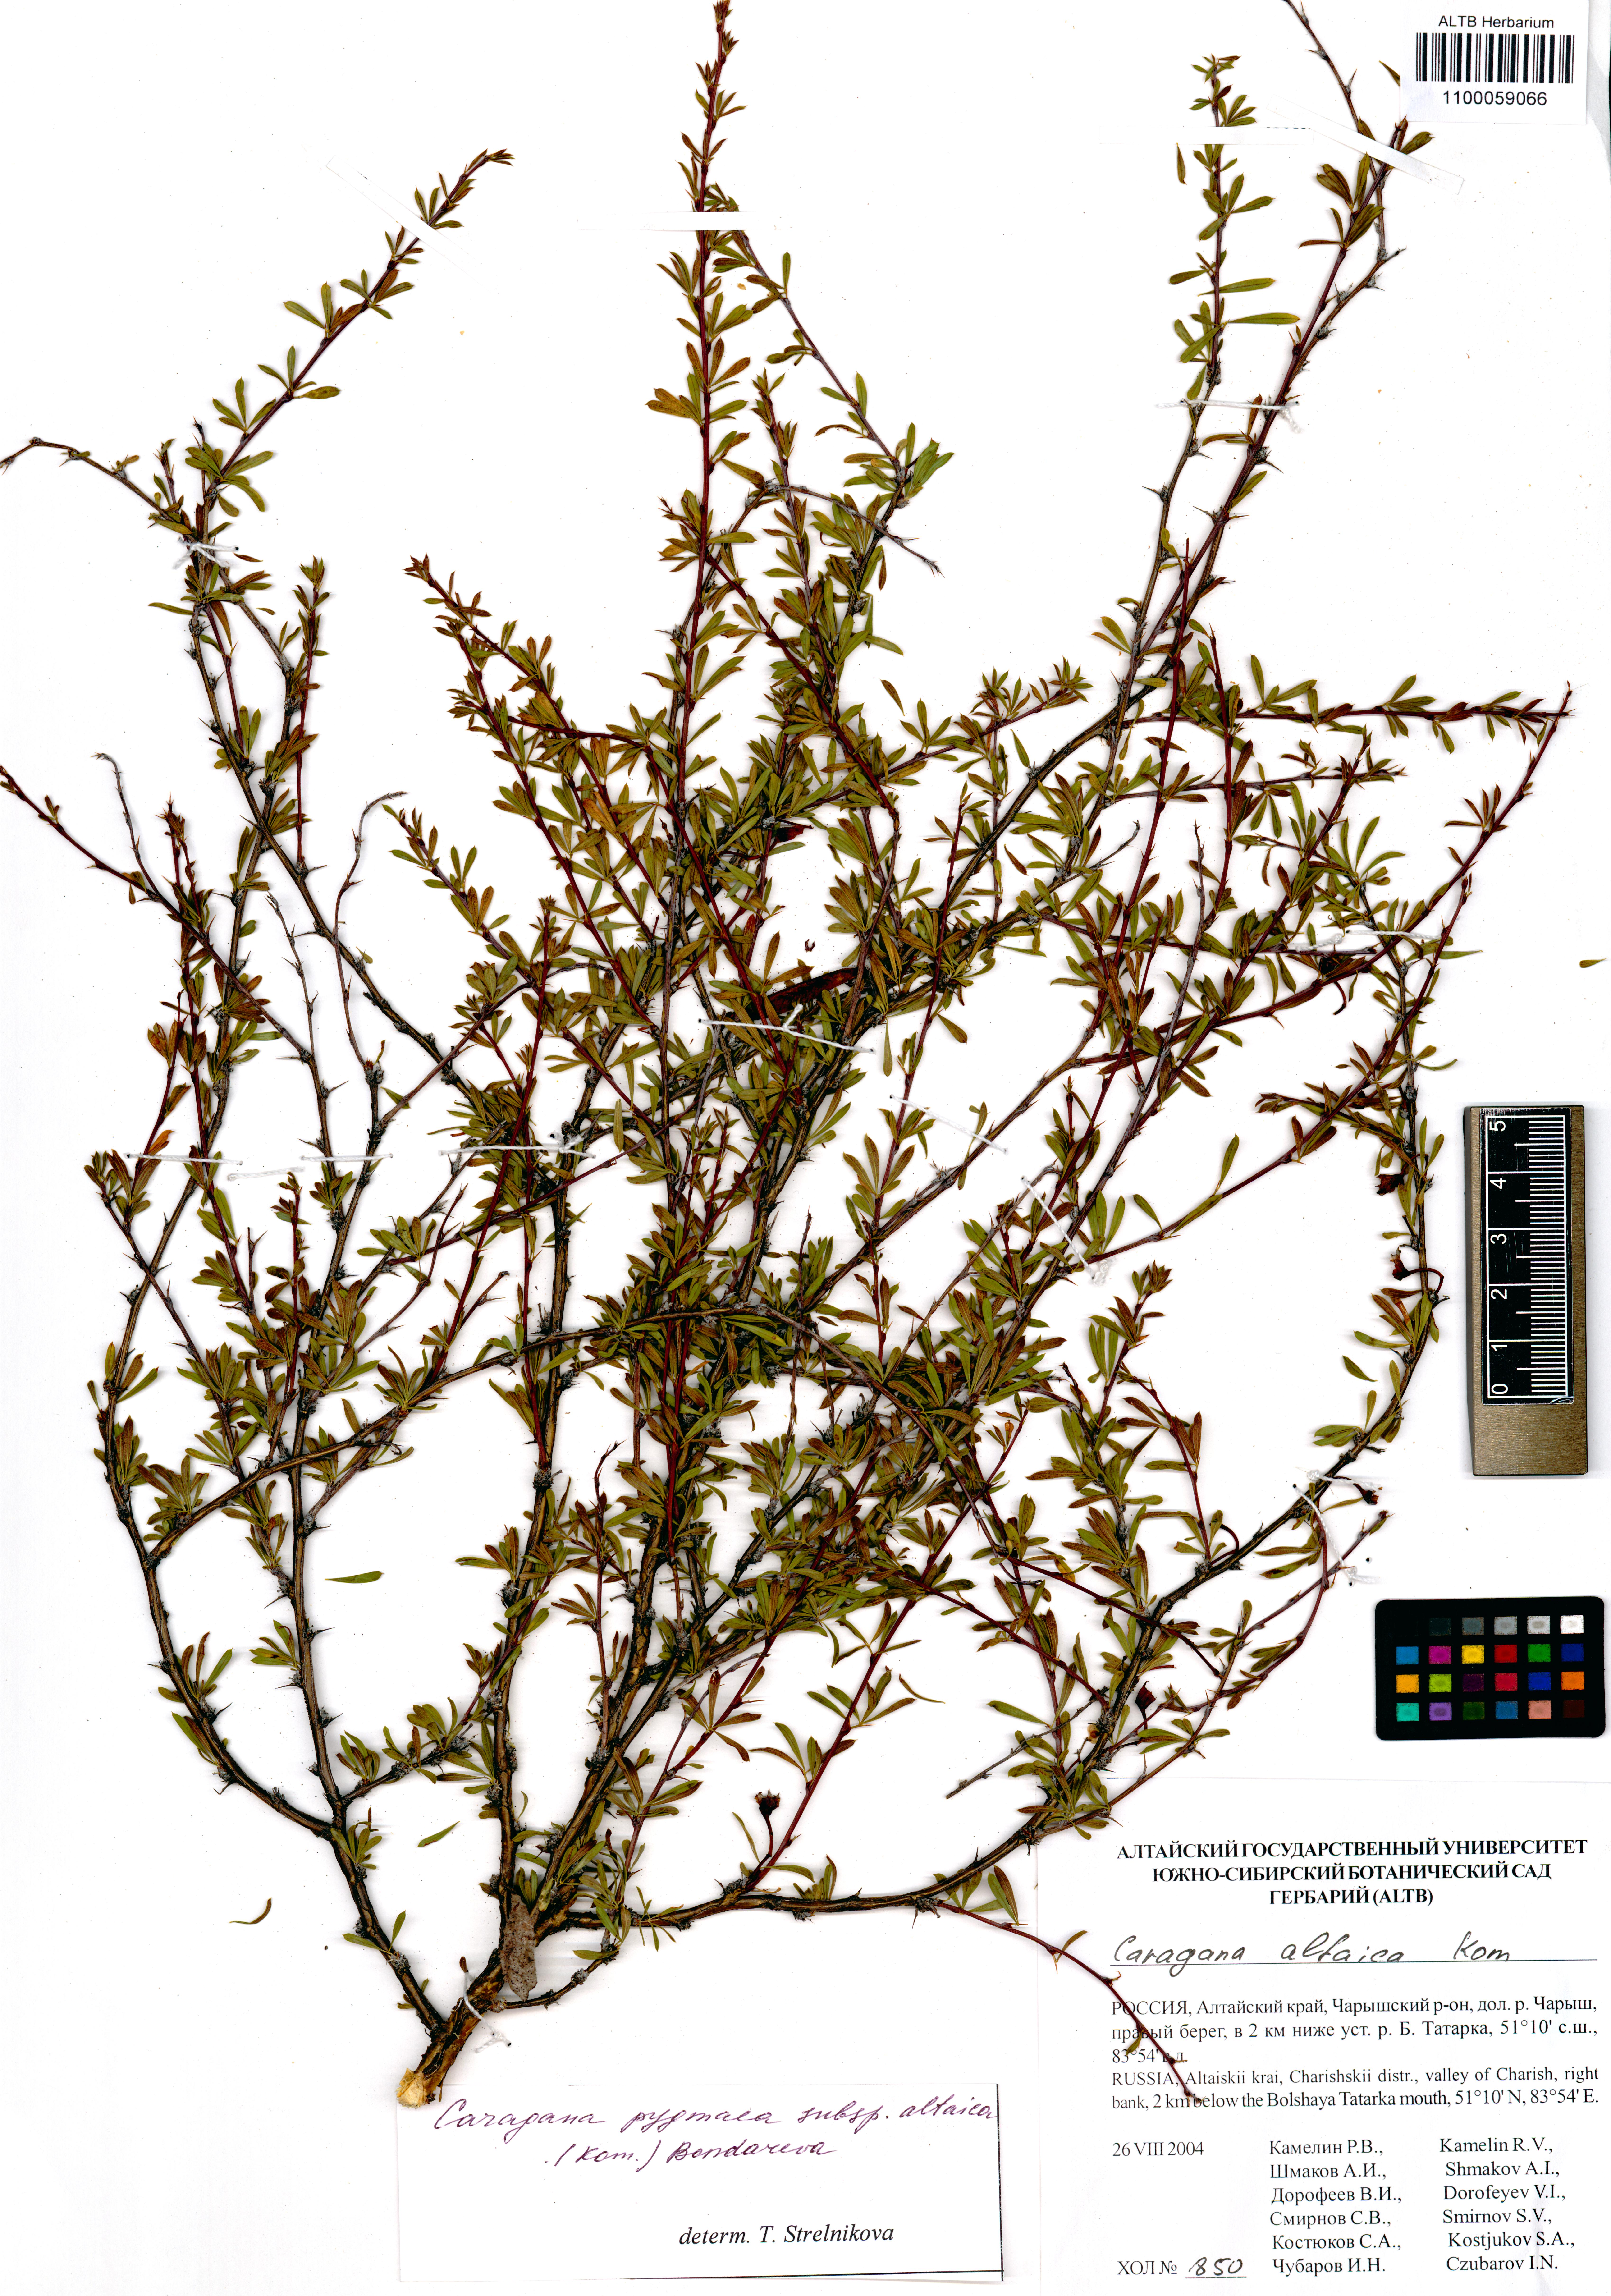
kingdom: Plantae
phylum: Tracheophyta
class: Magnoliopsida
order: Fabales
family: Fabaceae
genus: Caragana
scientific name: Caragana pygmaea
